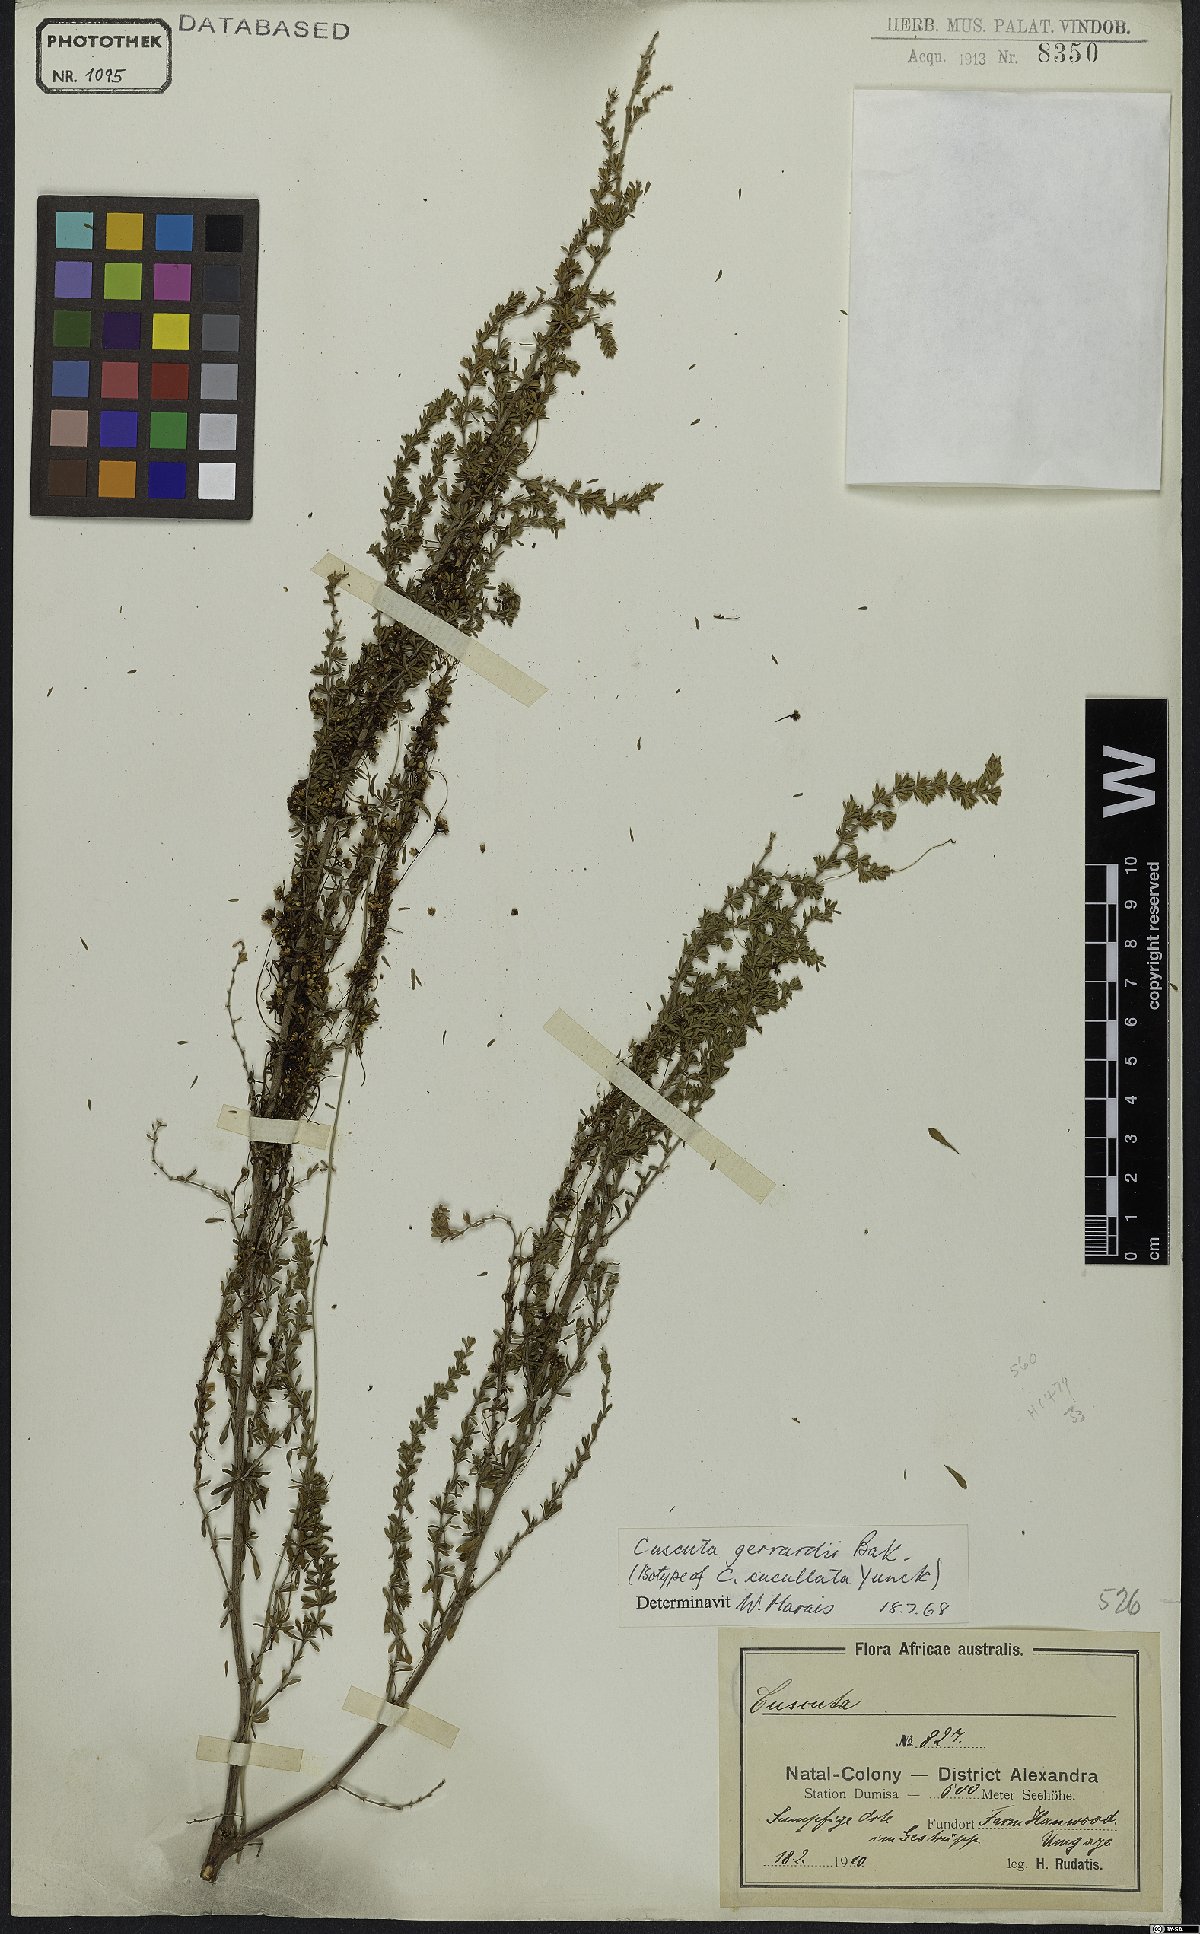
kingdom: Plantae
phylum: Tracheophyta
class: Magnoliopsida
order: Solanales
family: Convolvulaceae
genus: Cuscuta
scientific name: Cuscuta gerrardii
